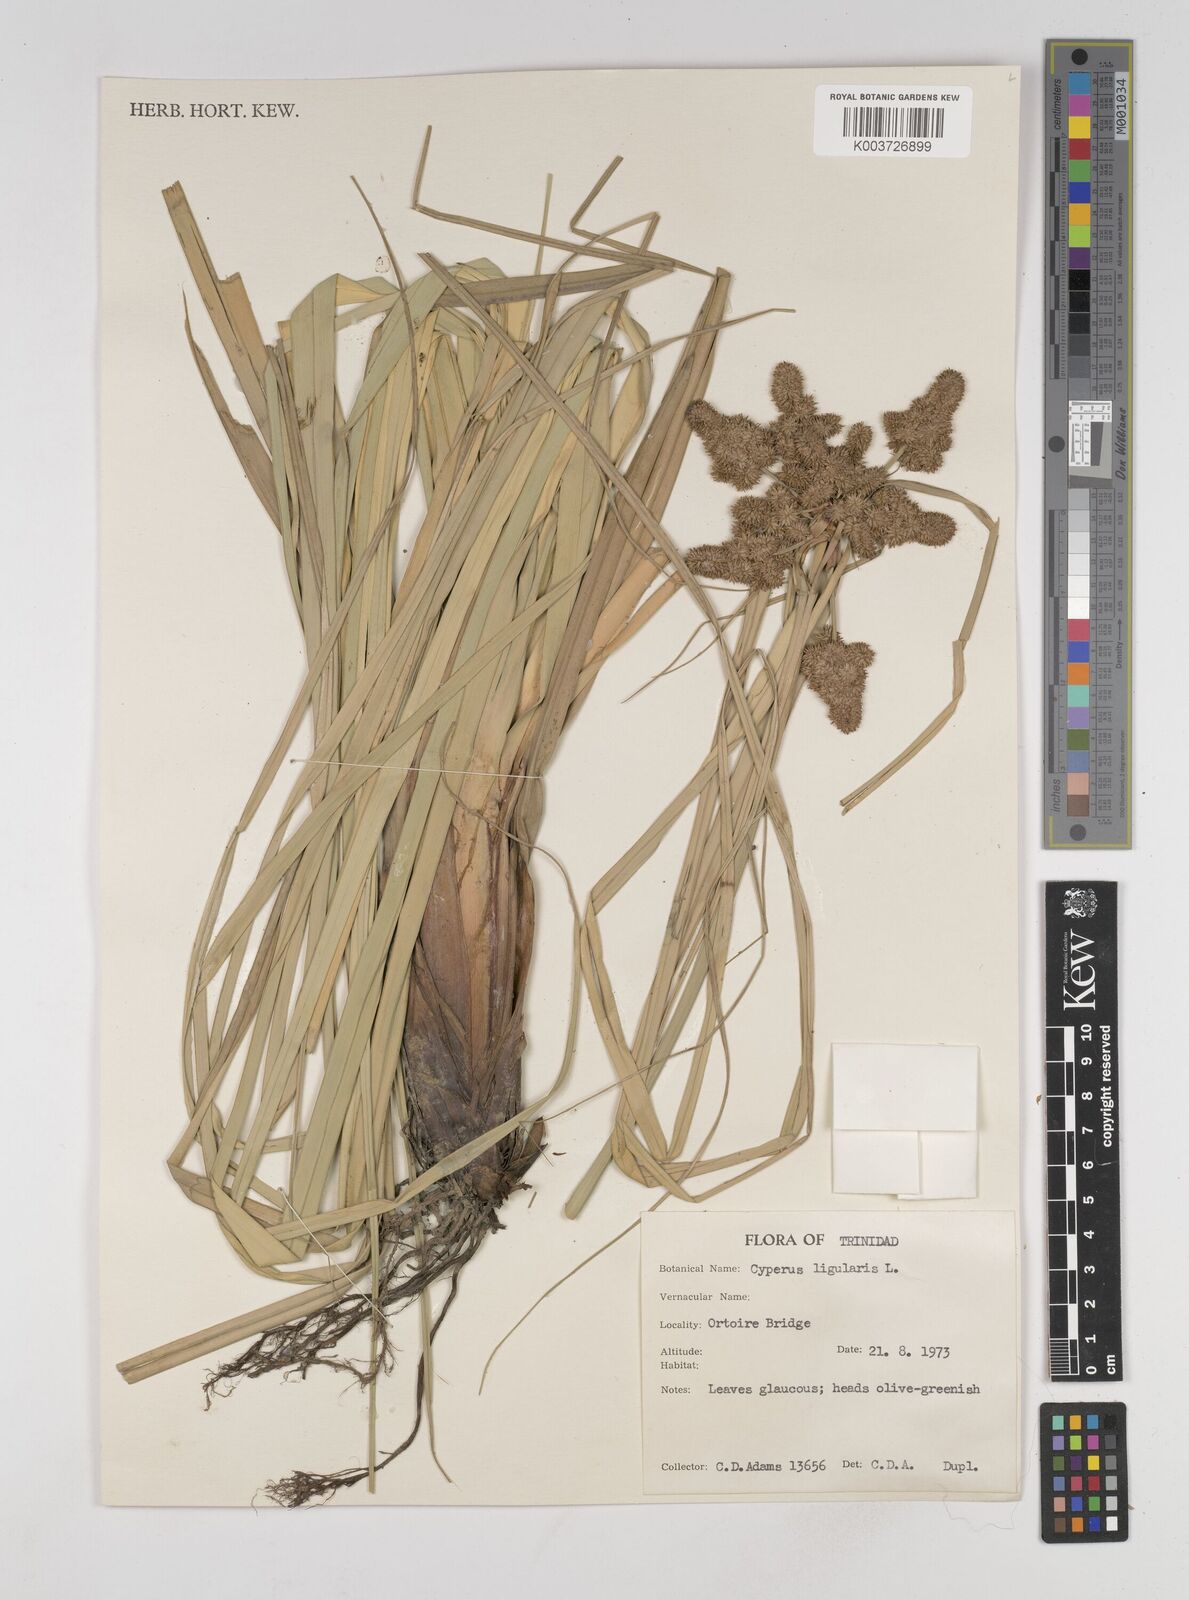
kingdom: Plantae
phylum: Tracheophyta
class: Liliopsida
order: Poales
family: Cyperaceae
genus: Cyperus
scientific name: Cyperus ligularis
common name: Swamp flat sedge
